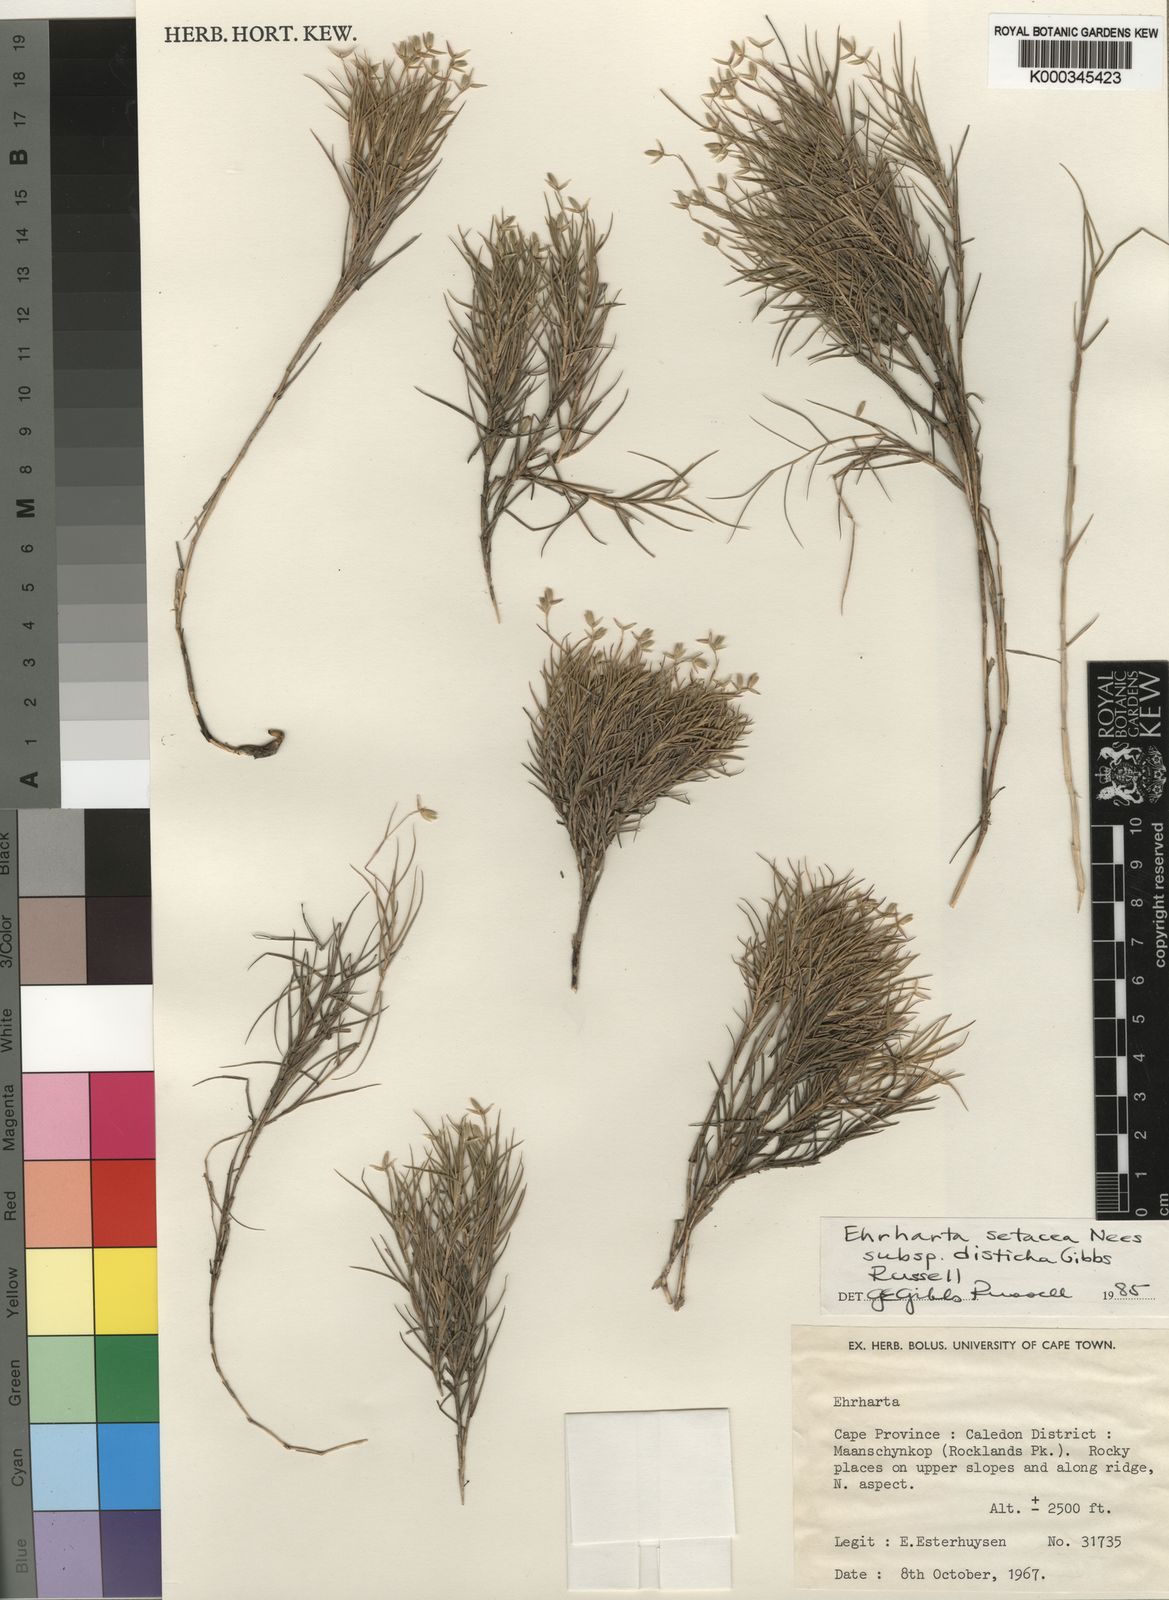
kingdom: Plantae
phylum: Tracheophyta
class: Liliopsida
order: Poales
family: Poaceae
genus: Ehrharta
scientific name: Ehrharta setacea
